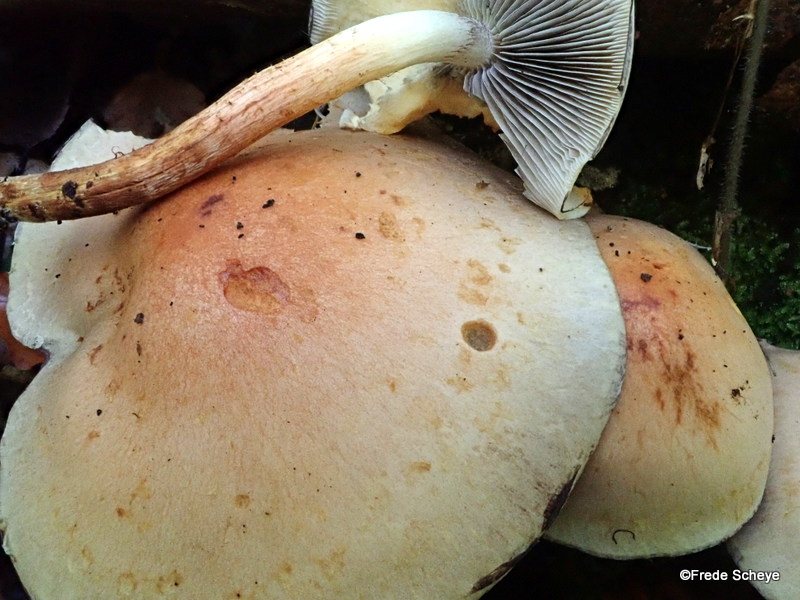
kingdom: Fungi
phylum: Basidiomycota
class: Agaricomycetes
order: Agaricales
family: Strophariaceae
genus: Hypholoma
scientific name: Hypholoma lateritium
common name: teglrød svovlhat
